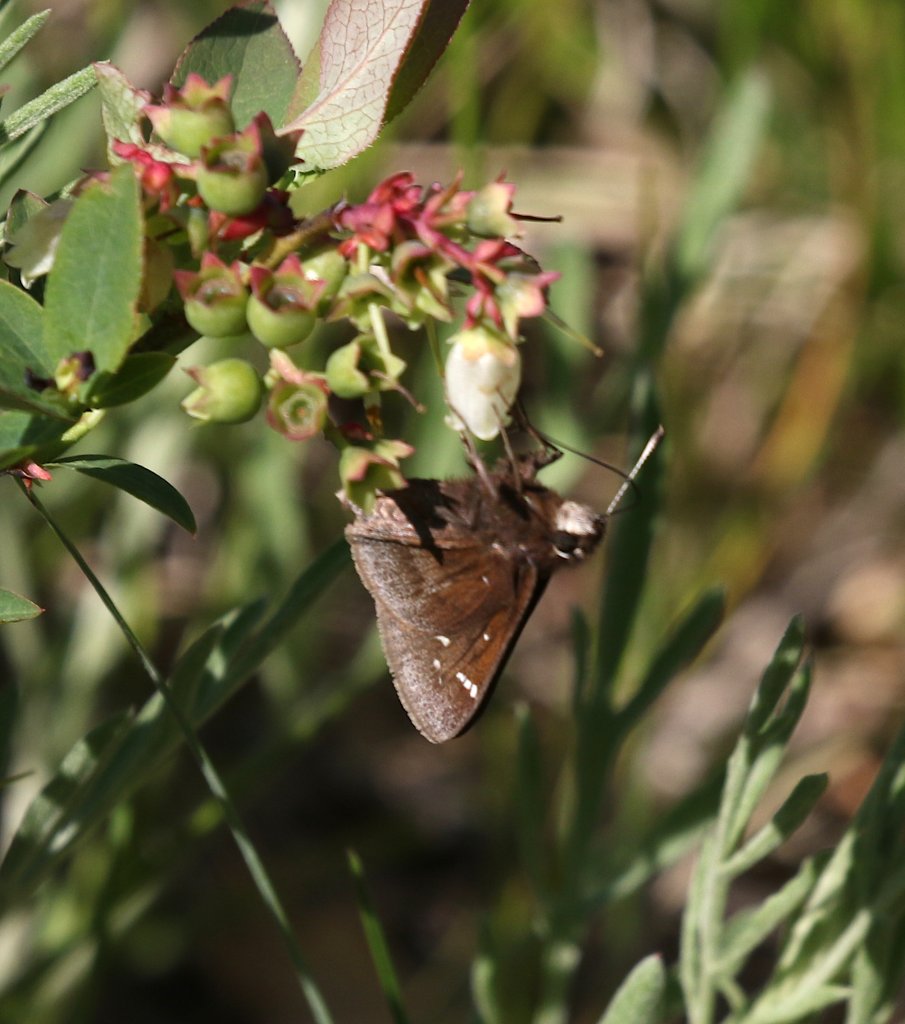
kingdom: Animalia
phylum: Arthropoda
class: Insecta
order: Lepidoptera
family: Hesperiidae
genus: Atrytonopsis
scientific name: Atrytonopsis hianna
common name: Dusted Skipper
